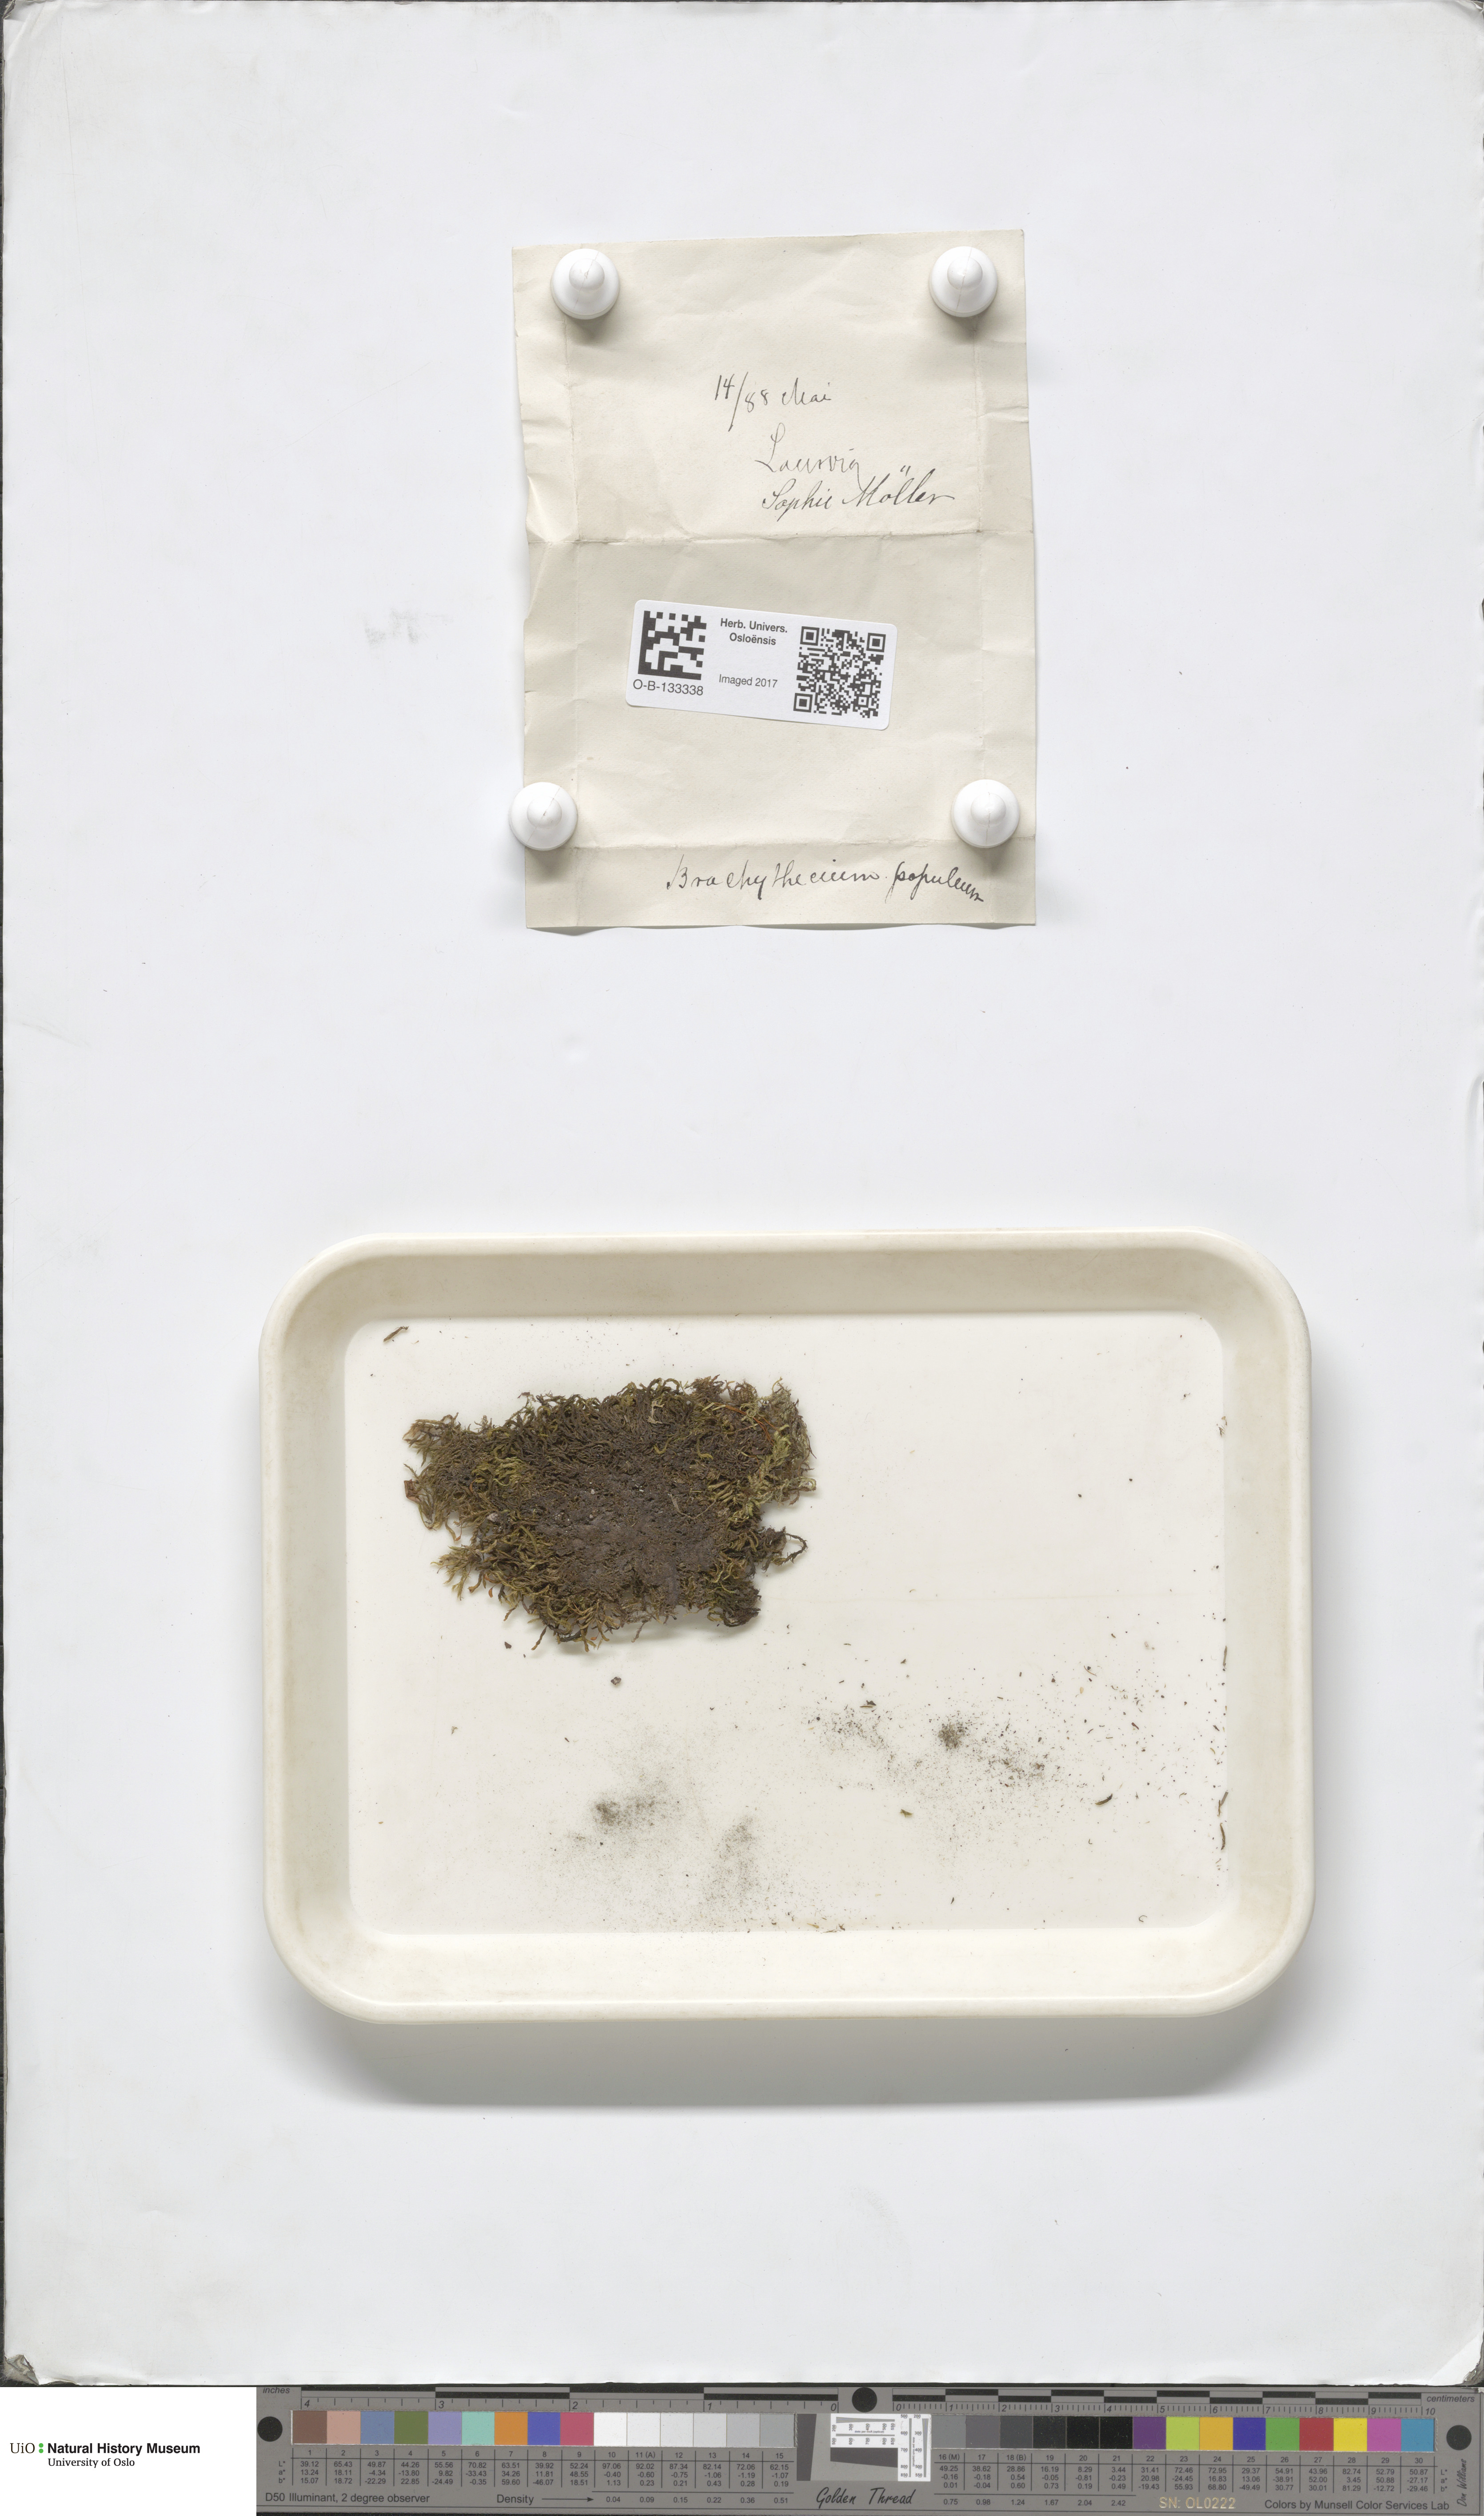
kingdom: Plantae
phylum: Bryophyta
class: Bryopsida
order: Hypnales
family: Brachytheciaceae
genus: Sciuro-hypnum
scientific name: Sciuro-hypnum plumosum
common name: Rusty feather-moss
